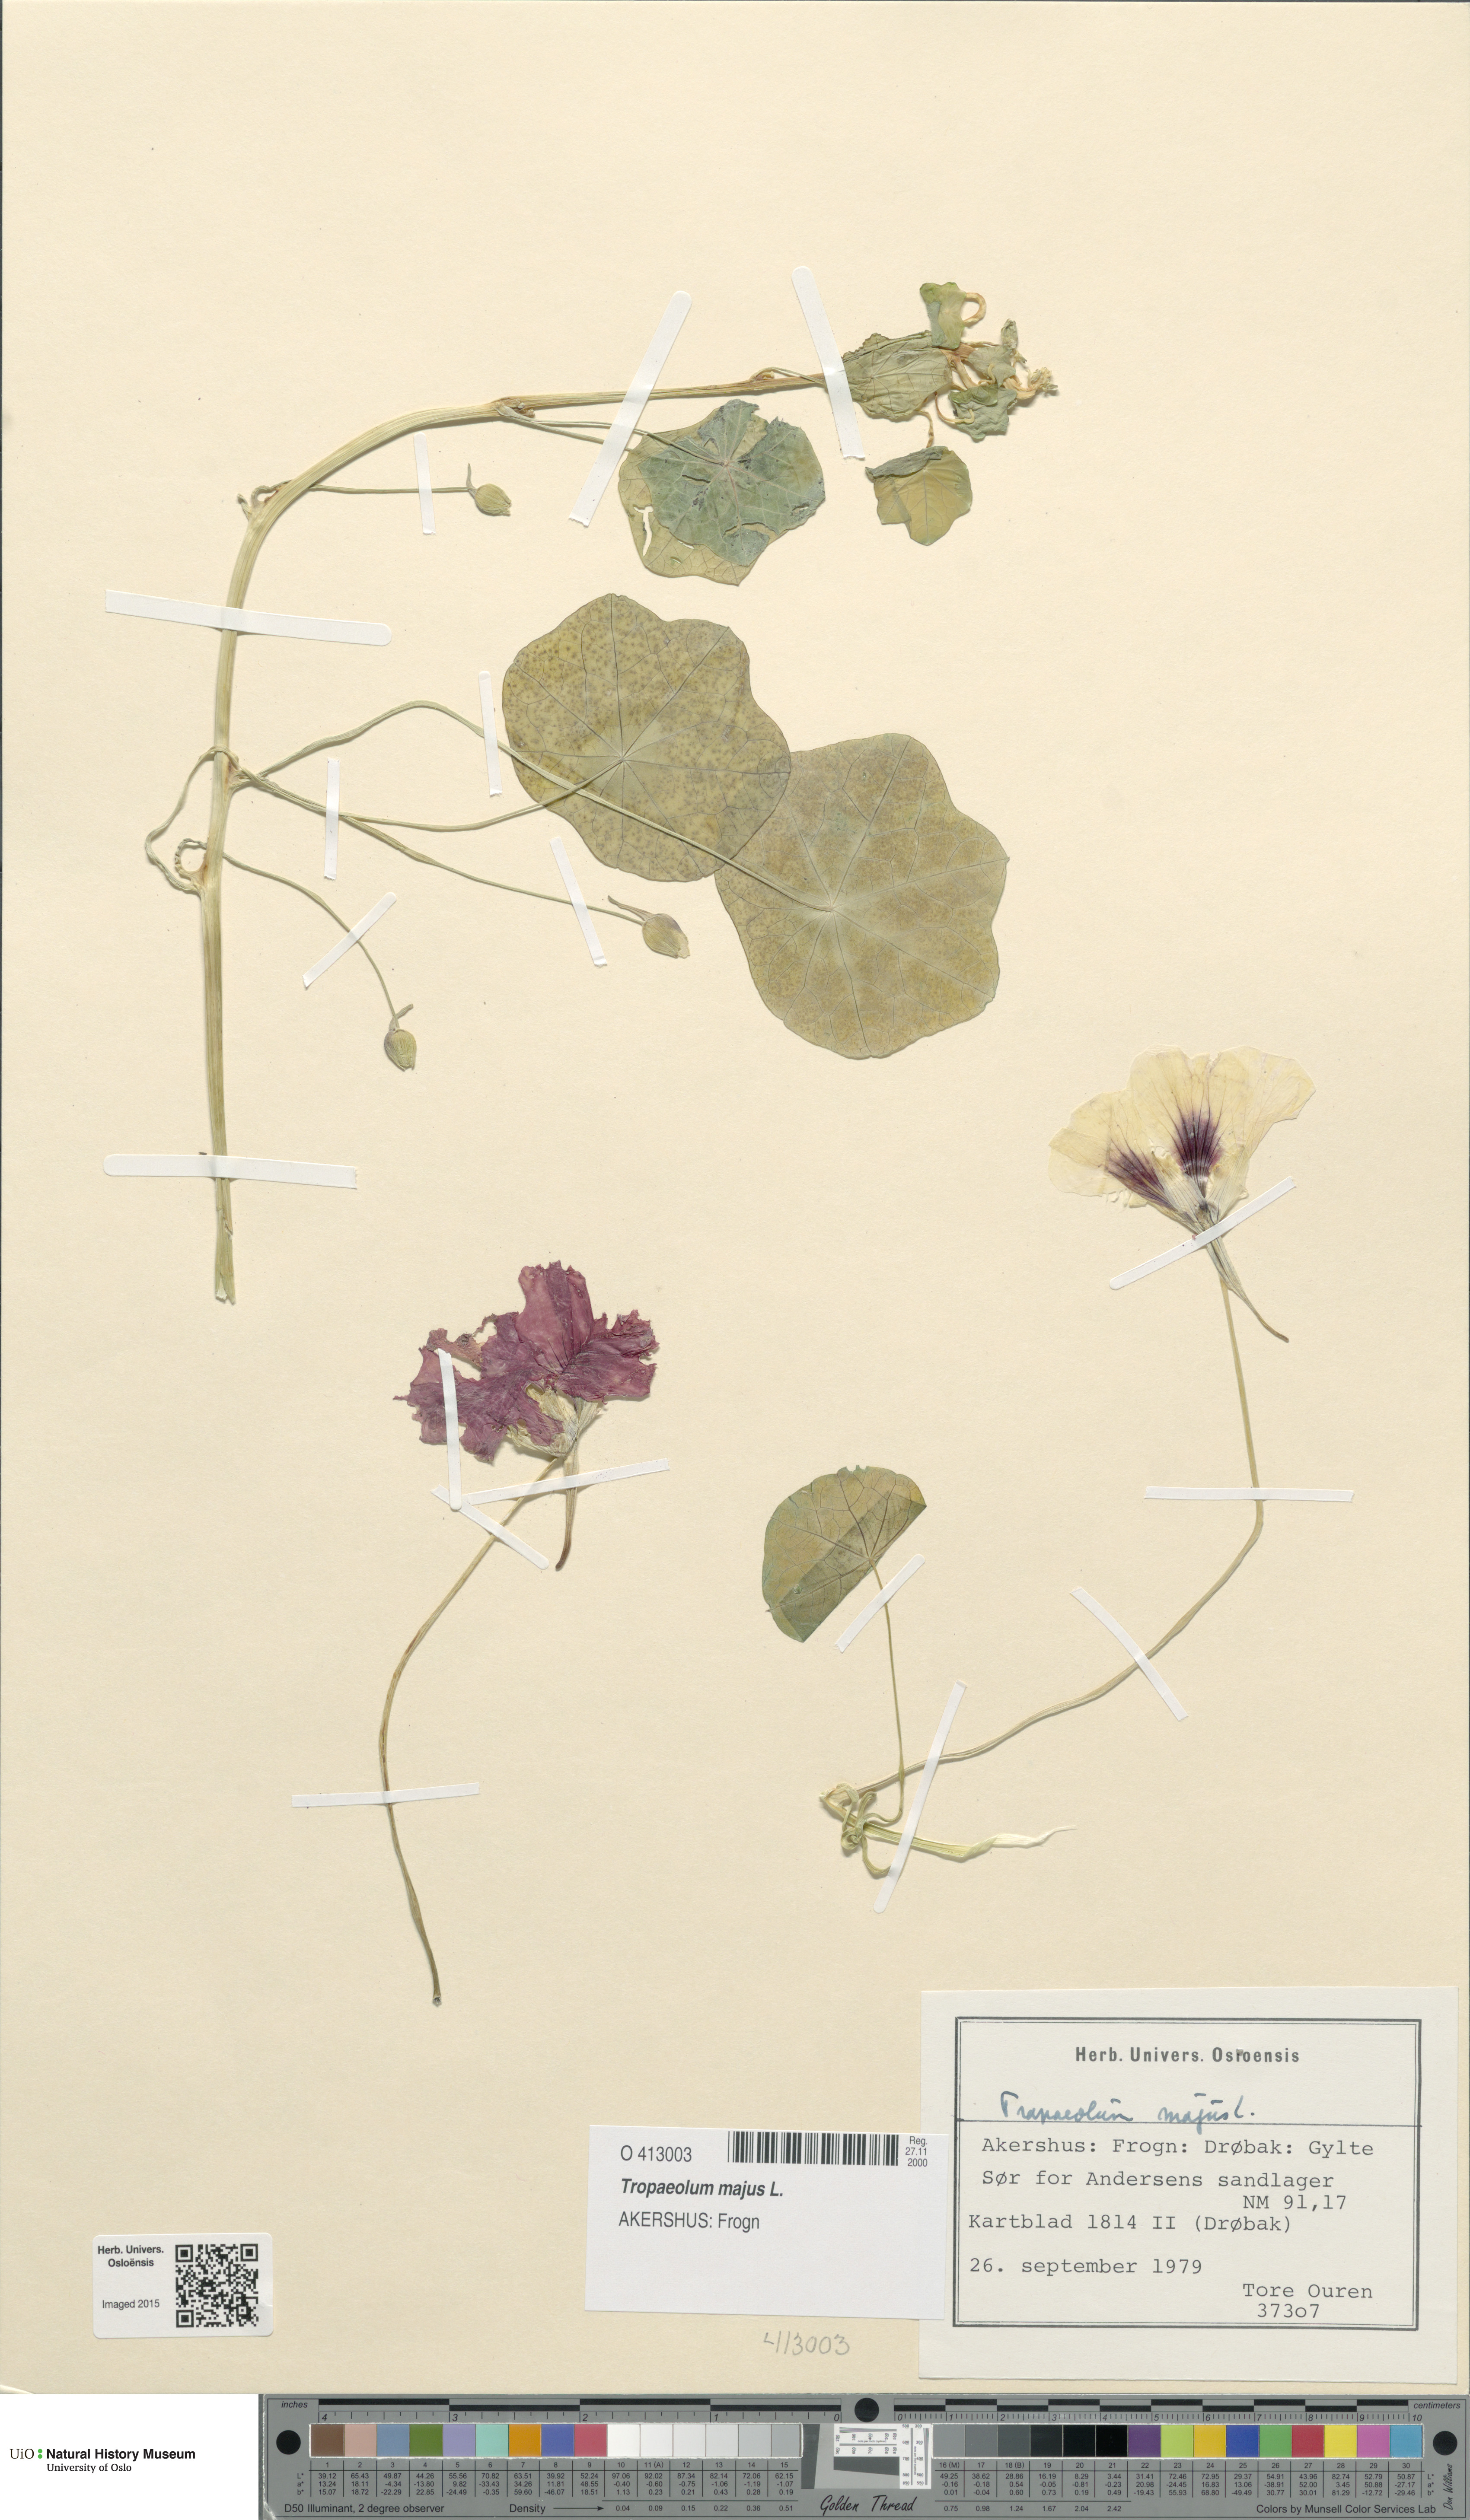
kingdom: Plantae
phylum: Tracheophyta
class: Magnoliopsida
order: Brassicales
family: Tropaeolaceae
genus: Tropaeolum
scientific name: Tropaeolum majus
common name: Nasturtium
